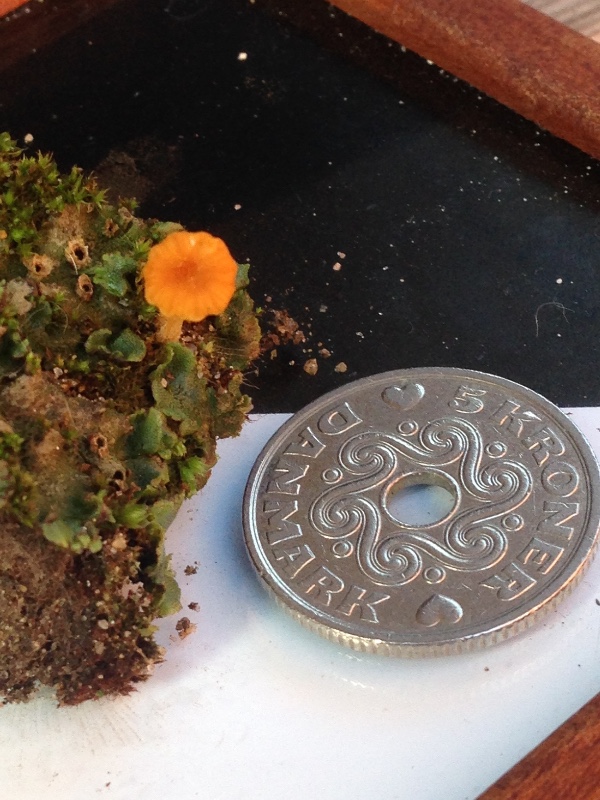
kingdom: Fungi
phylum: Basidiomycota
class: Agaricomycetes
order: Hymenochaetales
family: Rickenellaceae
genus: Loreleia
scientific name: Loreleia marchantiae
